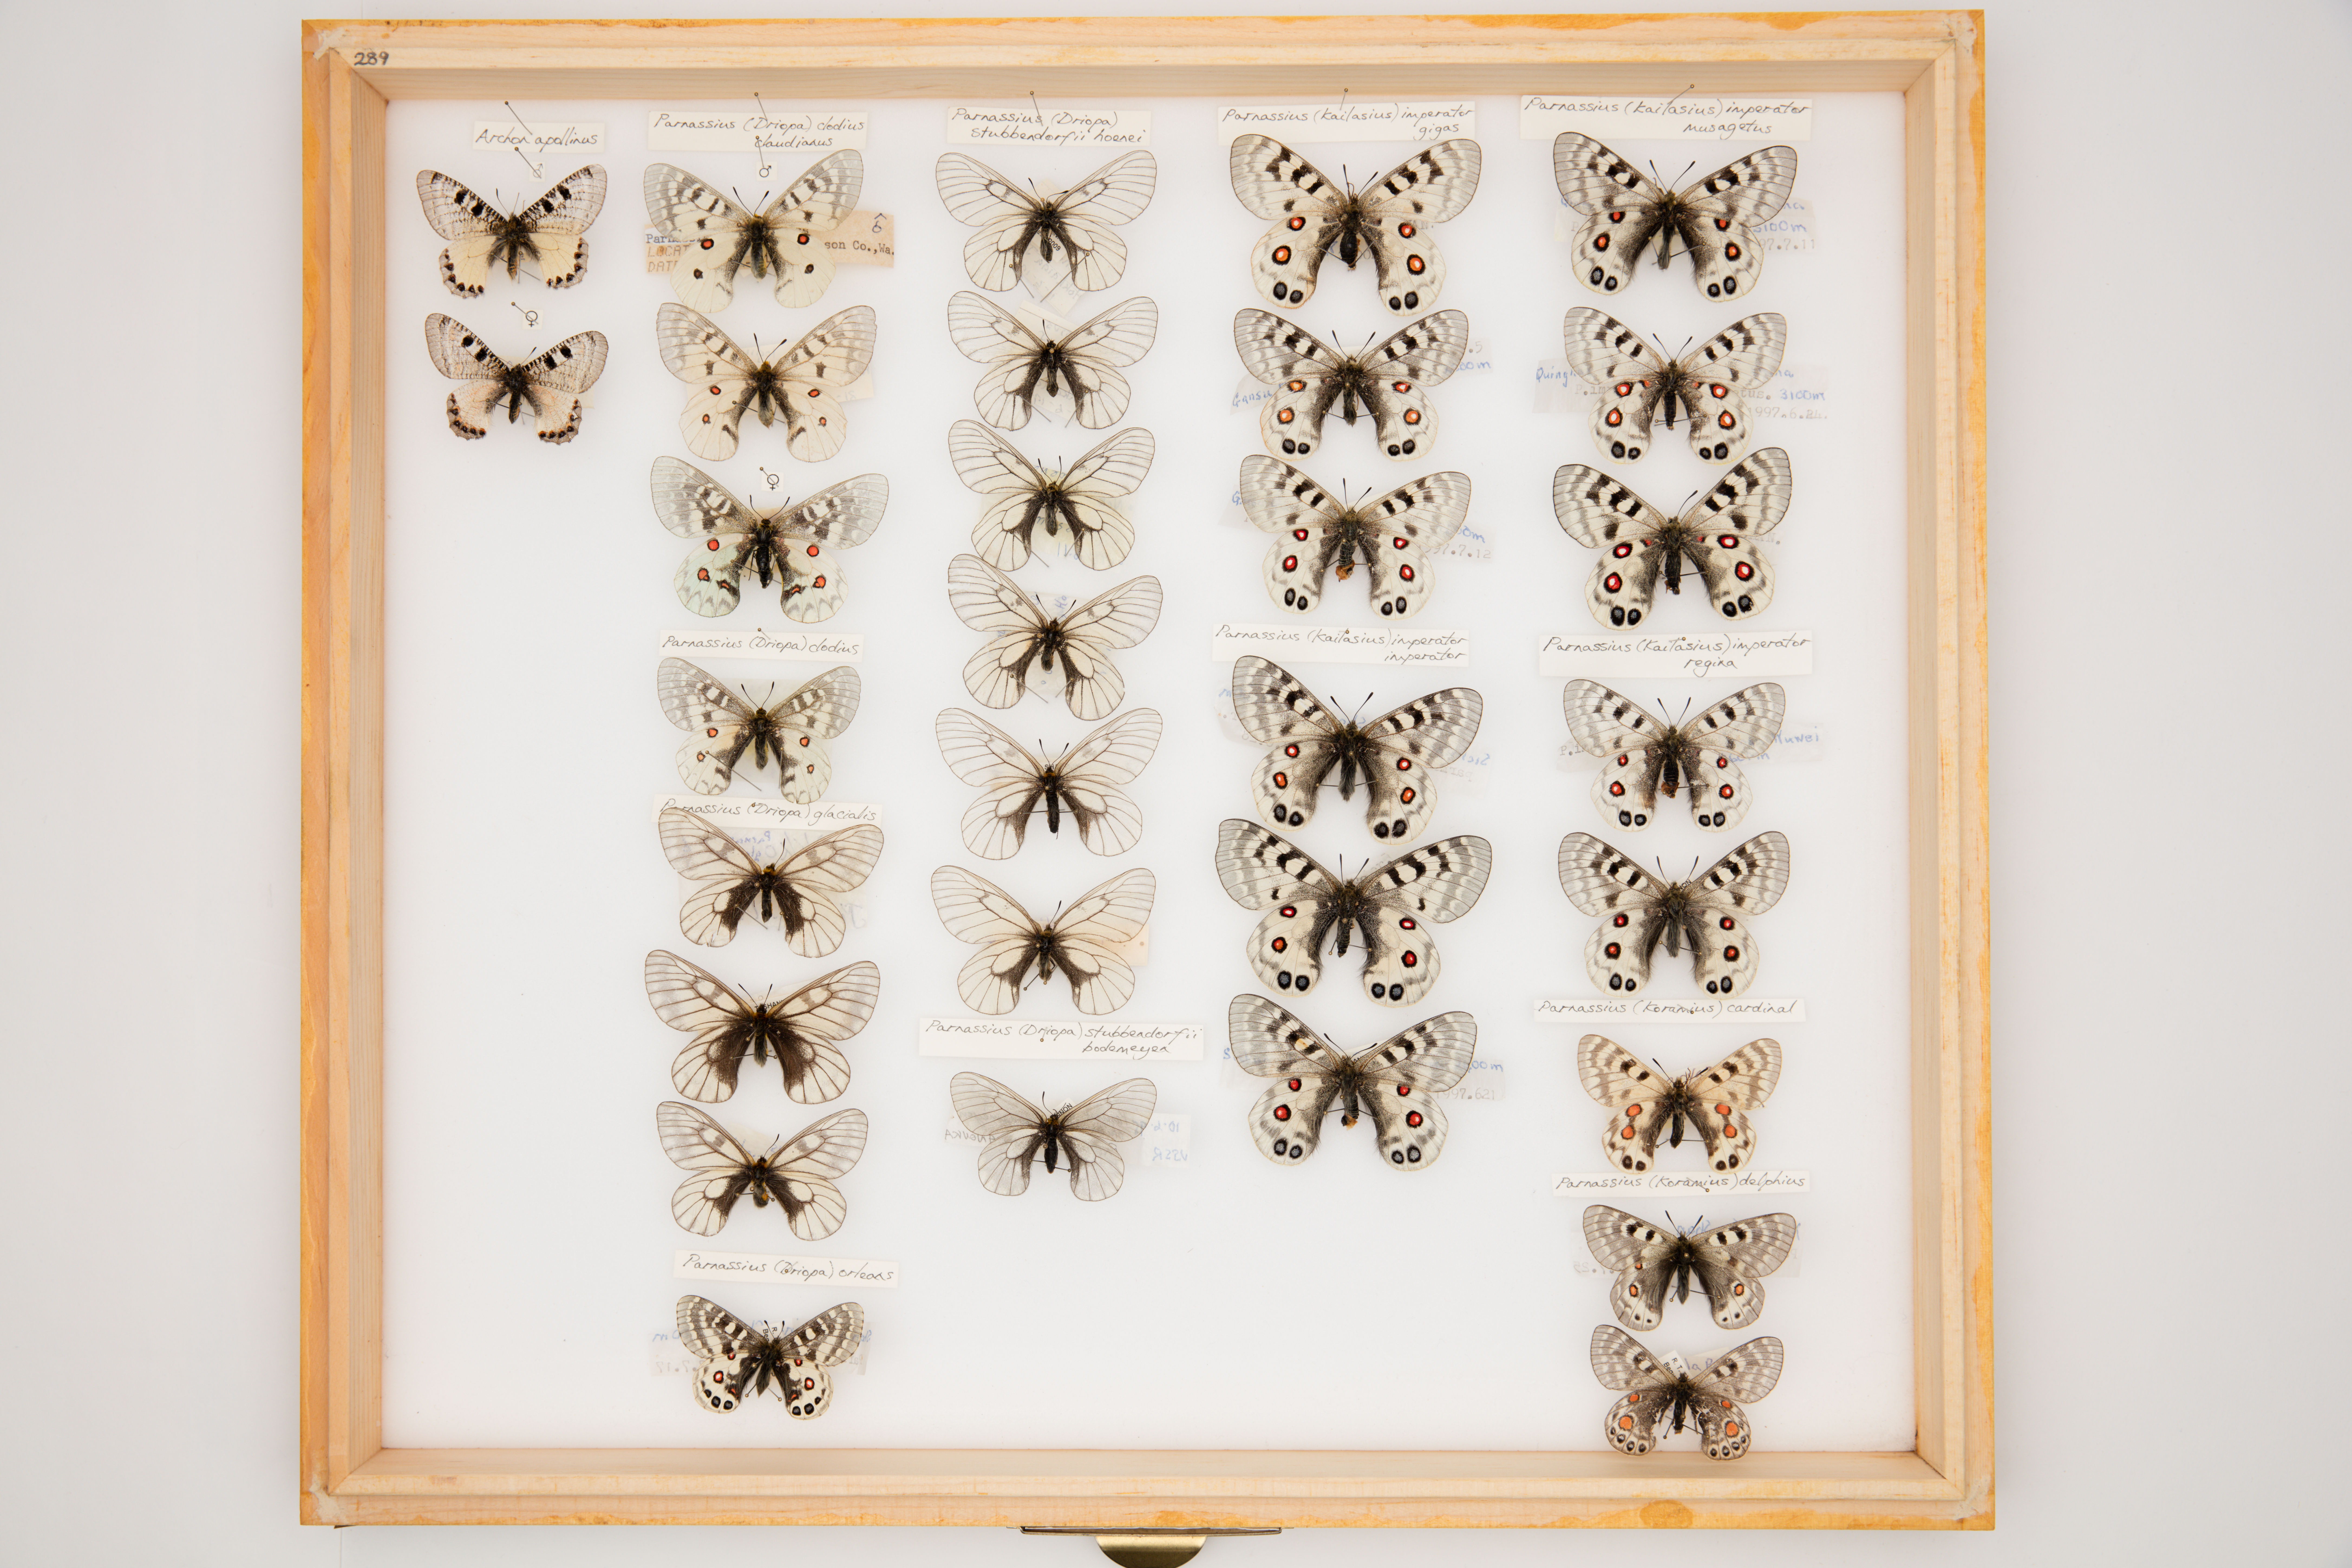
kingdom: Animalia
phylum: Arthropoda
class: Insecta
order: Lepidoptera
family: Papilionidae
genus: Parnassius
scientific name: Parnassius clodius
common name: American apollo
